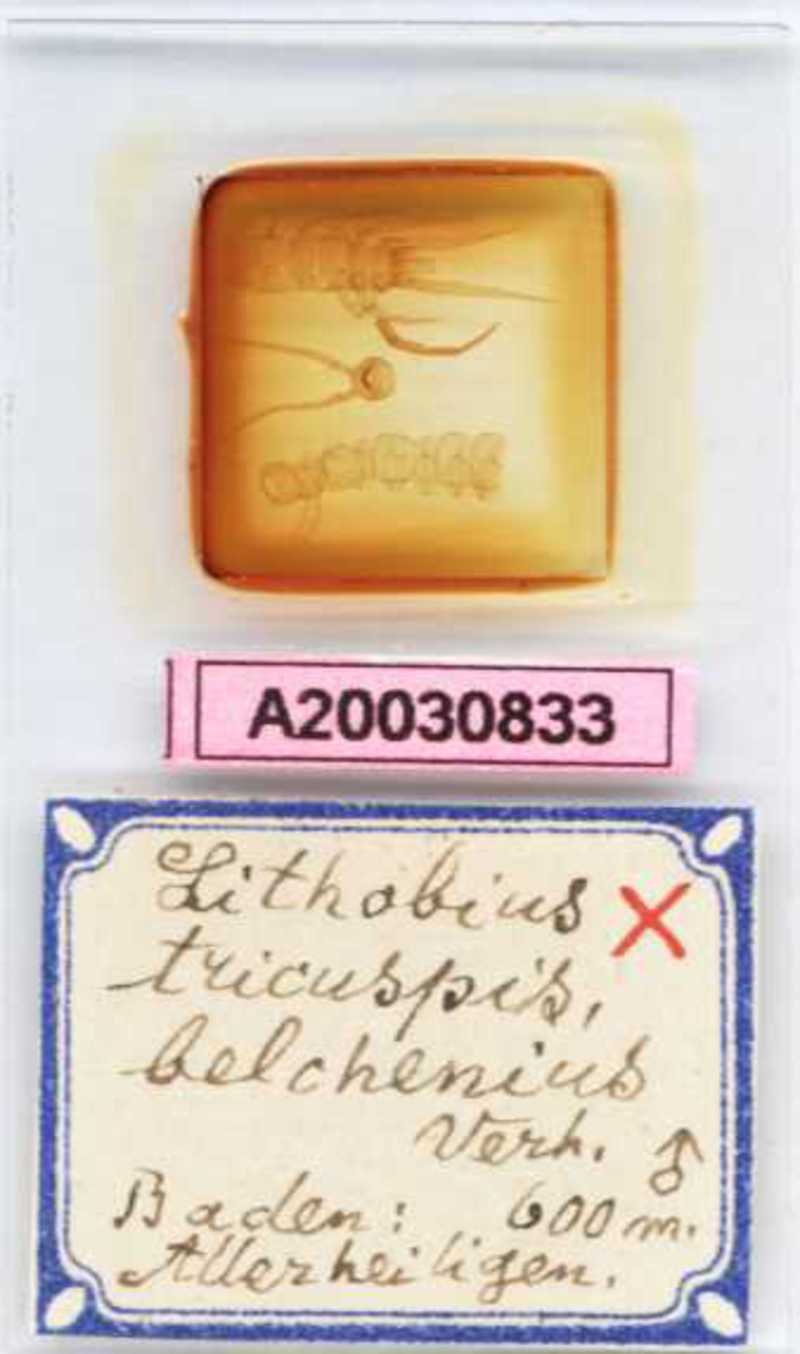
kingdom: Animalia
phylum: Arthropoda
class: Chilopoda
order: Lithobiomorpha
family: Lithobiidae
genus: Lithobius
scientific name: Lithobius tricuspis
